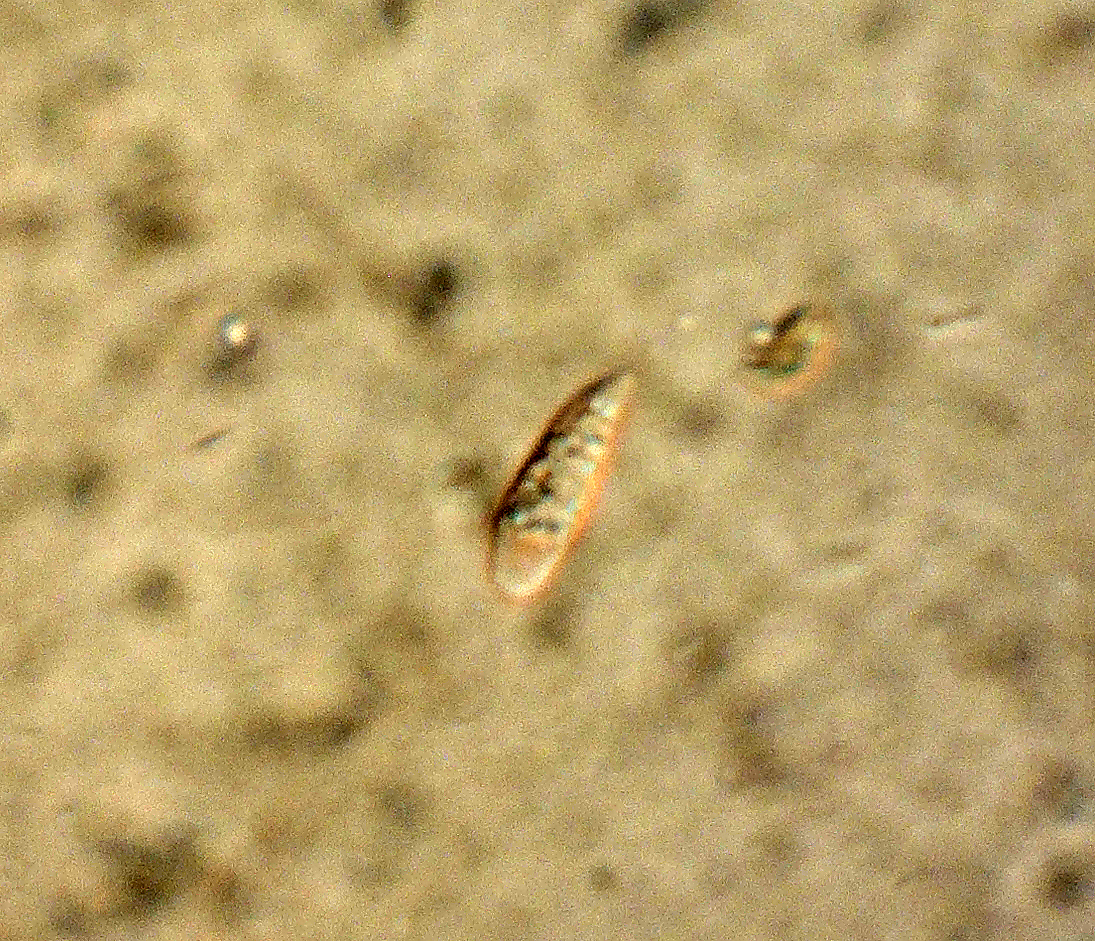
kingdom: Fungi
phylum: Basidiomycota
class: Agaricomycetes
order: Agaricales
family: Mycenaceae
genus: Hemimycena
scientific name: Hemimycena
